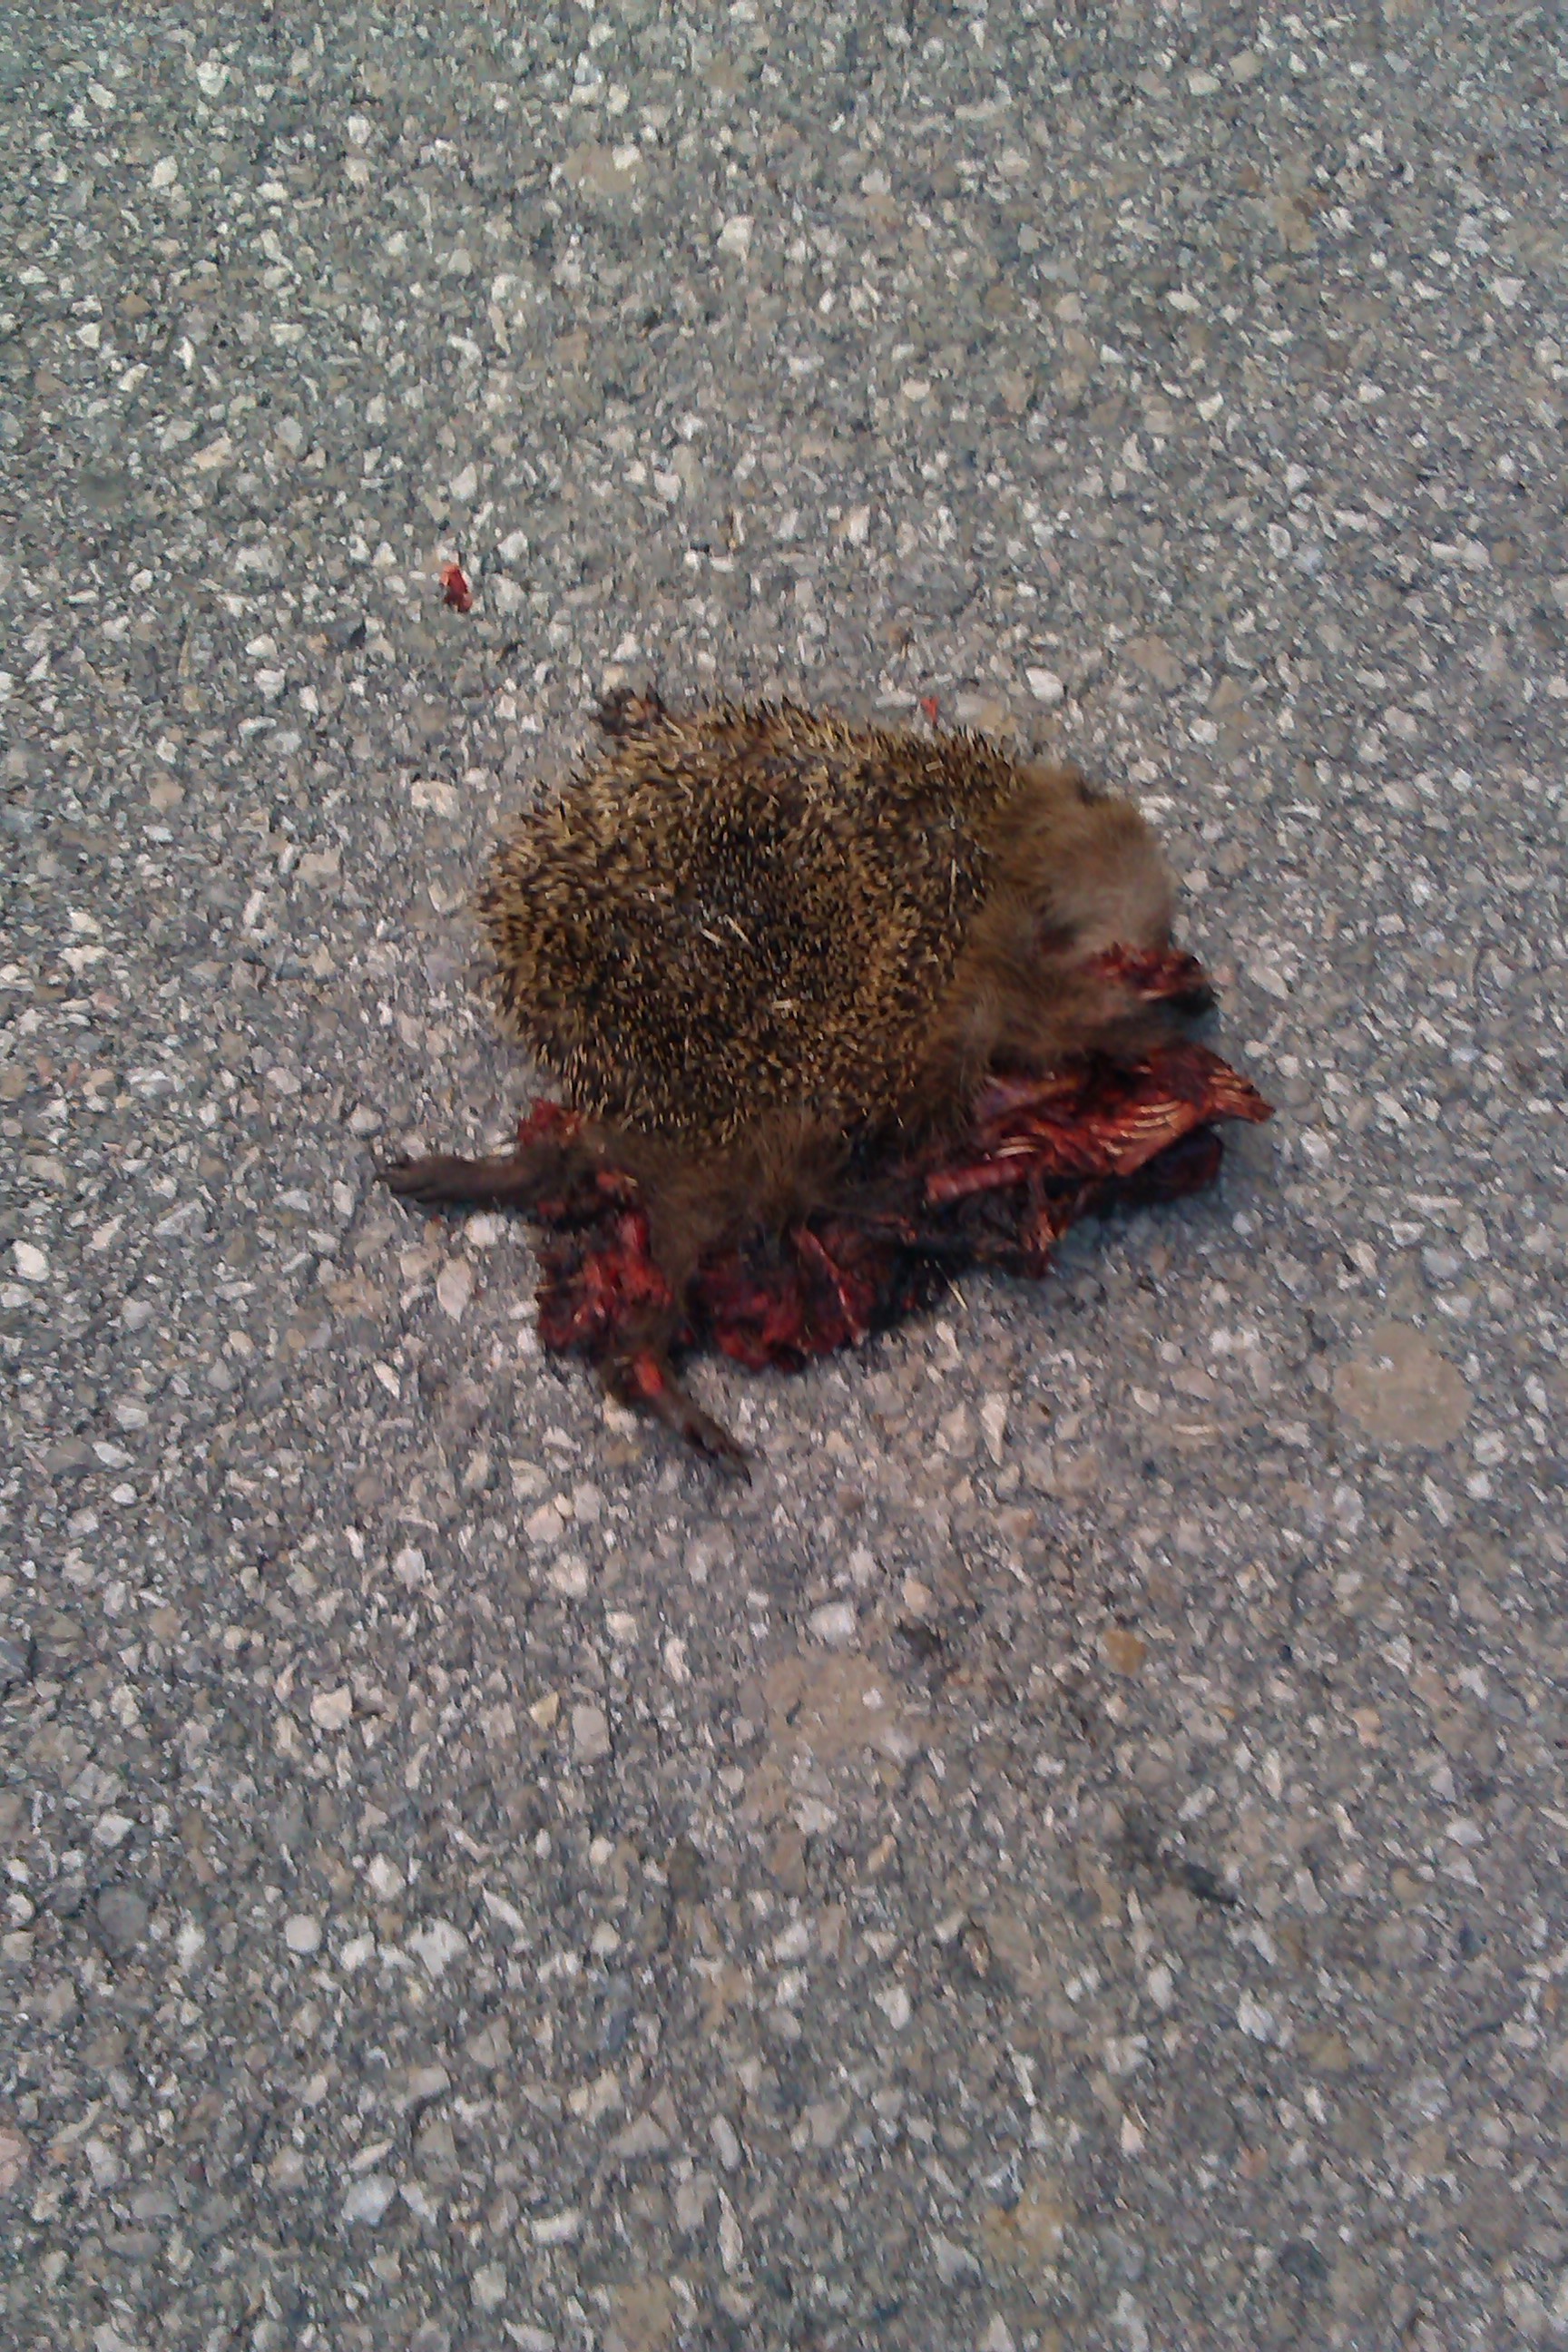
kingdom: Animalia
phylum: Chordata
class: Mammalia
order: Erinaceomorpha
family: Erinaceidae
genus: Erinaceus
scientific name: Erinaceus
